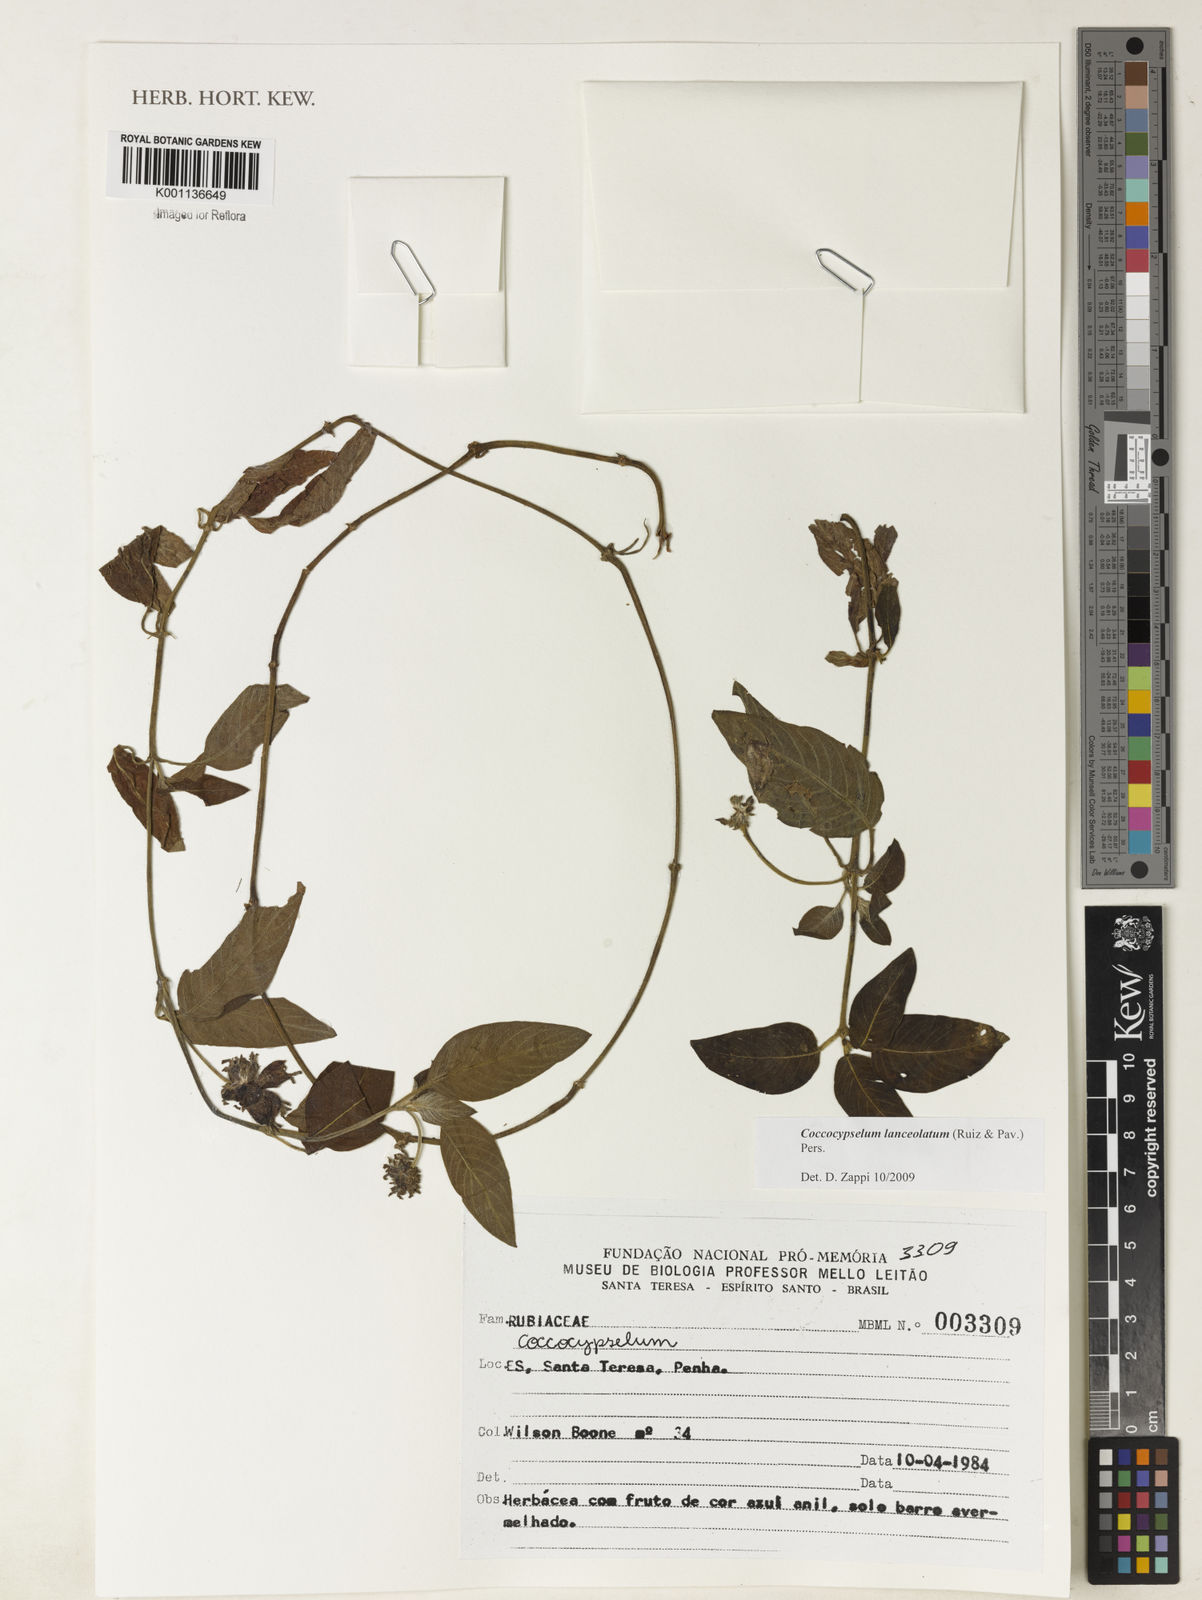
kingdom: Plantae
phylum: Tracheophyta
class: Magnoliopsida
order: Gentianales
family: Rubiaceae
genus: Coccocypselum
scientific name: Coccocypselum lanceolatum
